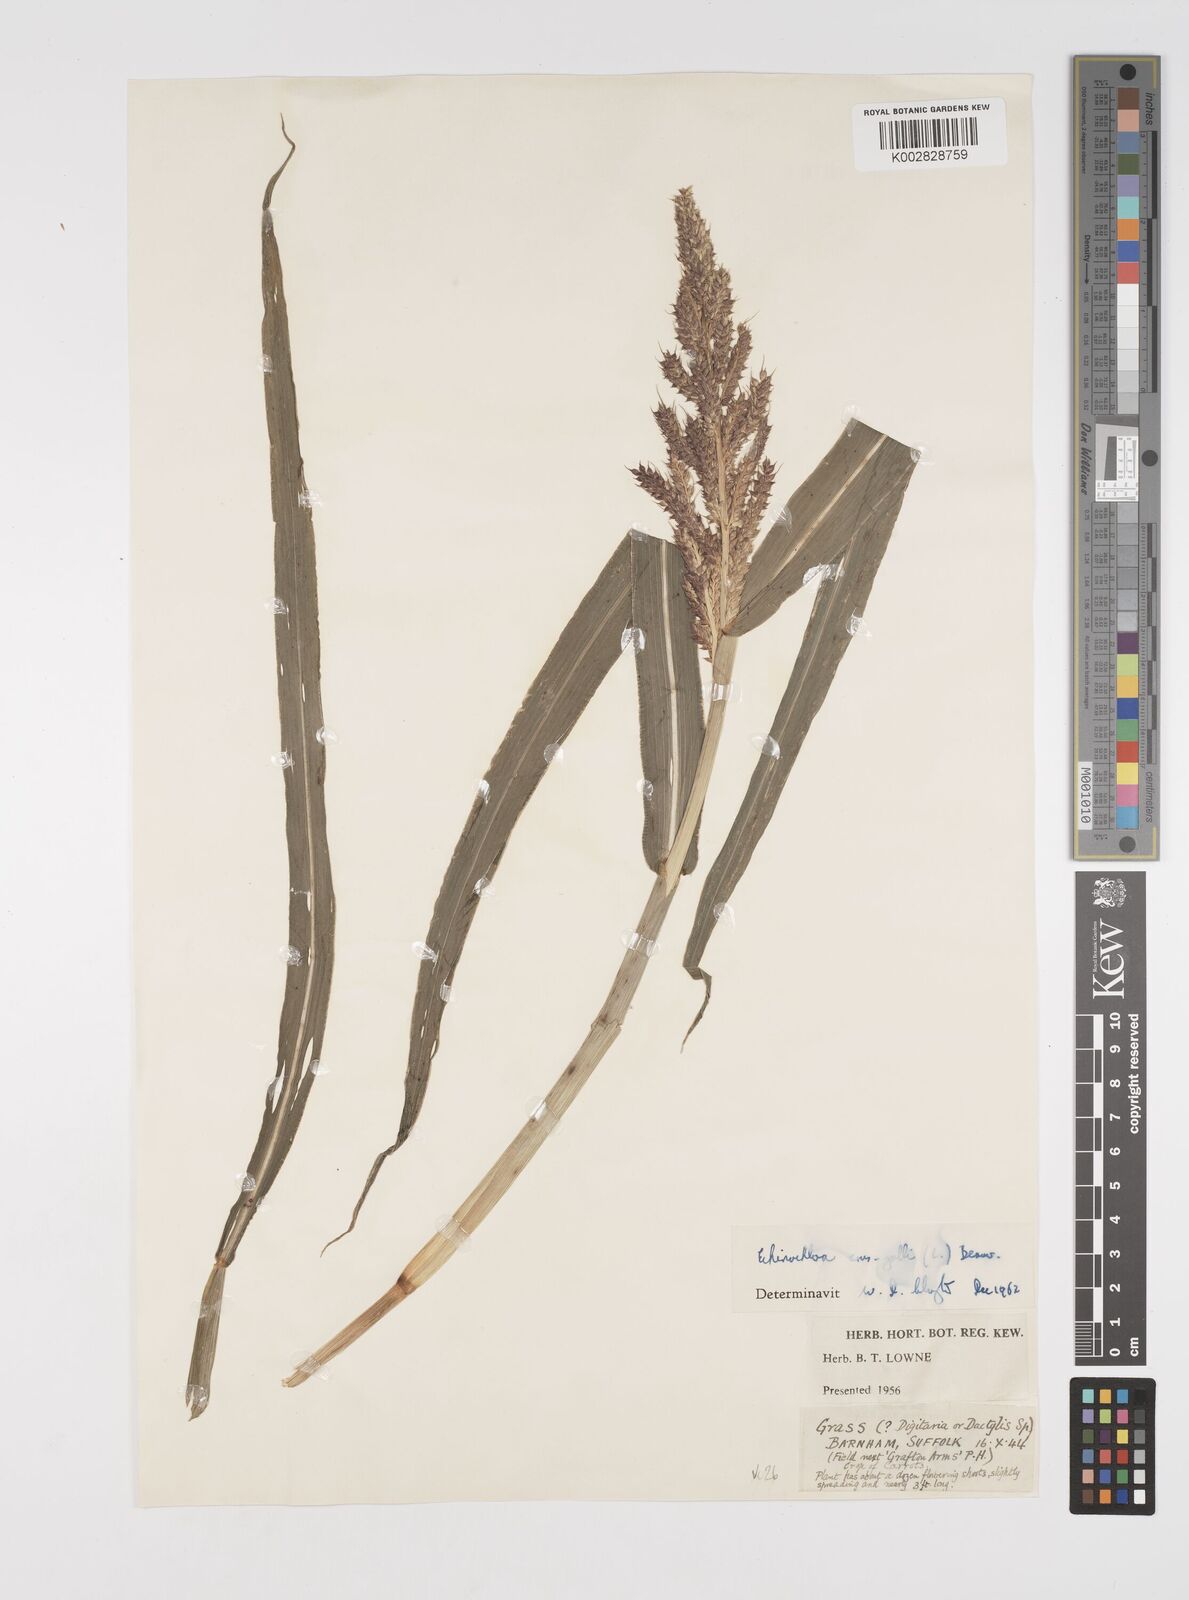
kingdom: Plantae
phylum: Tracheophyta
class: Liliopsida
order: Poales
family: Poaceae
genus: Echinochloa
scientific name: Echinochloa crus-galli
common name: Cockspur
